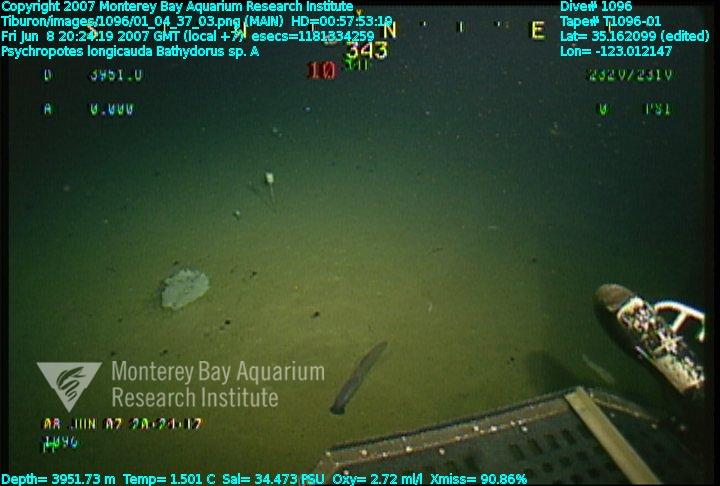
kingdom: Animalia
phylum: Porifera
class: Hexactinellida
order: Lyssacinosida
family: Rossellidae
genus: Bathydorus
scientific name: Bathydorus laniger
